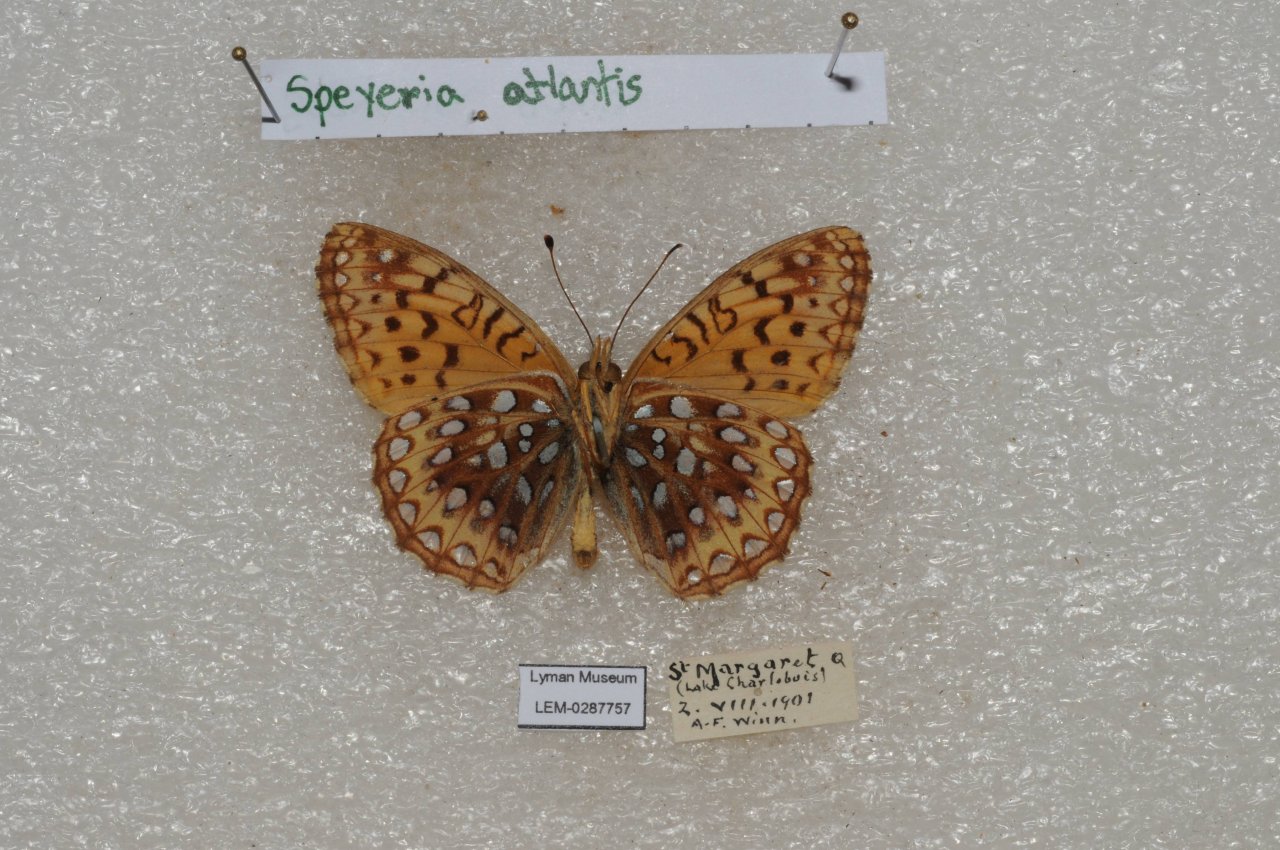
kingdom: Animalia
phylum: Arthropoda
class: Insecta
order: Lepidoptera
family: Nymphalidae
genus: Speyeria
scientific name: Speyeria atlantis
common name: Atlantis Fritillary
